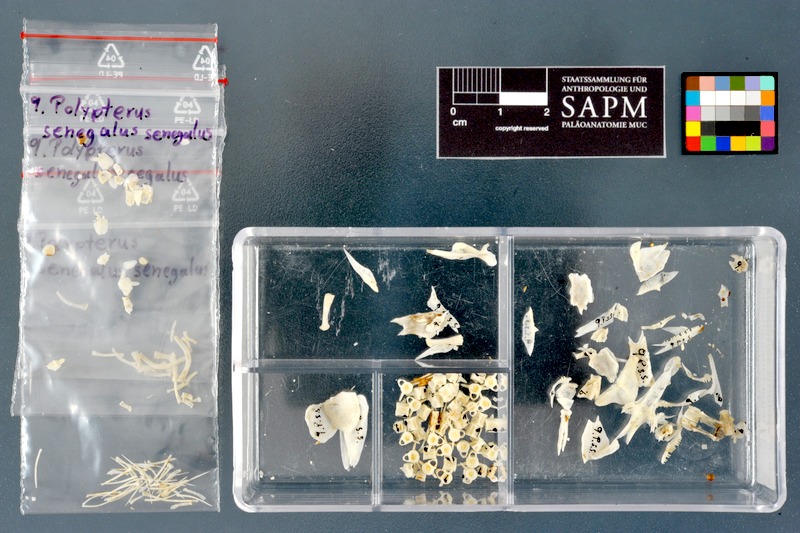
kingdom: Animalia
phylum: Chordata
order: Polypteriformes
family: Polypteridae
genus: Polypterus
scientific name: Polypterus senegalus
